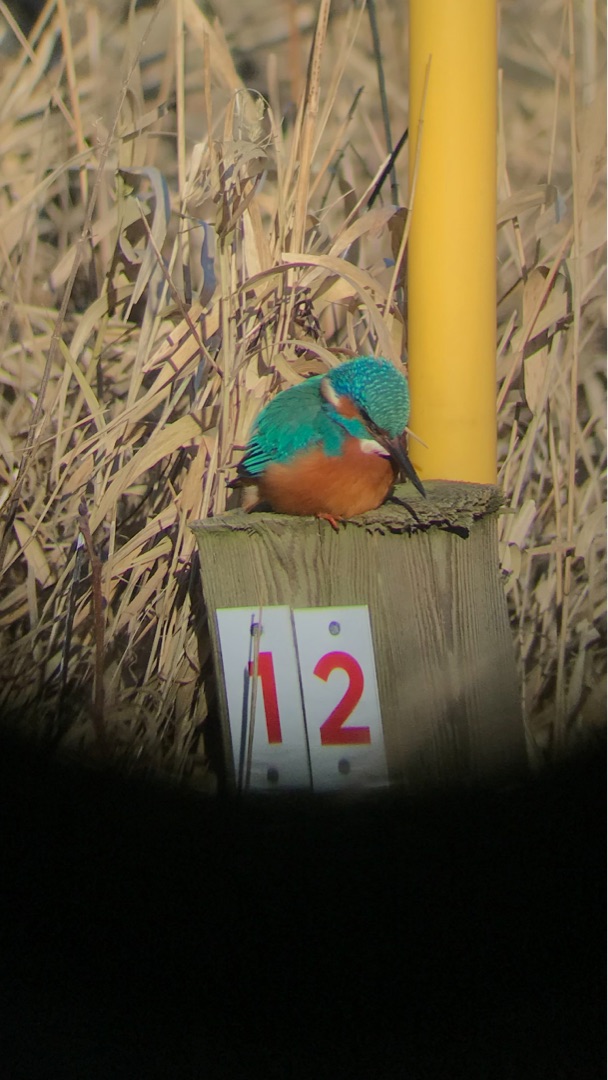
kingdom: Animalia
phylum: Chordata
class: Aves
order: Coraciiformes
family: Alcedinidae
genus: Alcedo
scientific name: Alcedo atthis
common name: Isfugl
